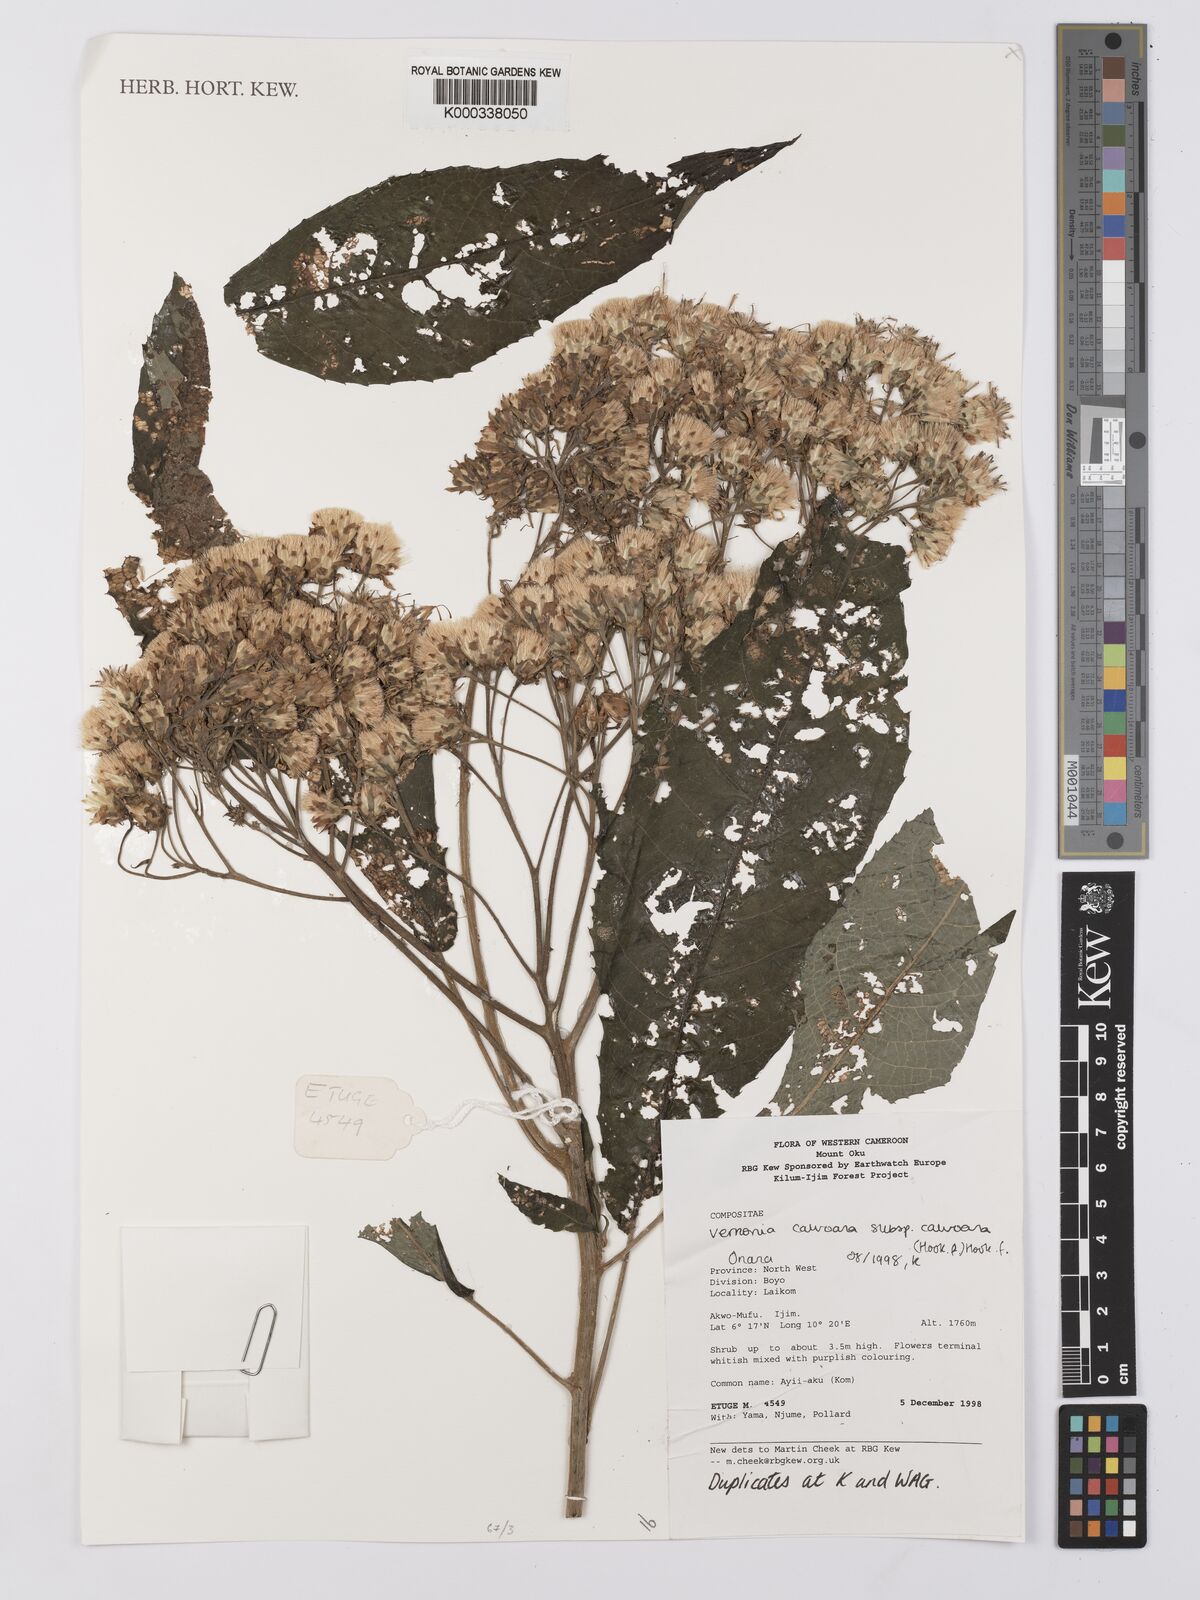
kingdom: Plantae
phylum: Tracheophyta
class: Magnoliopsida
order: Asterales
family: Asteraceae
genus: Baccharoides
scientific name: Baccharoides calvoana
